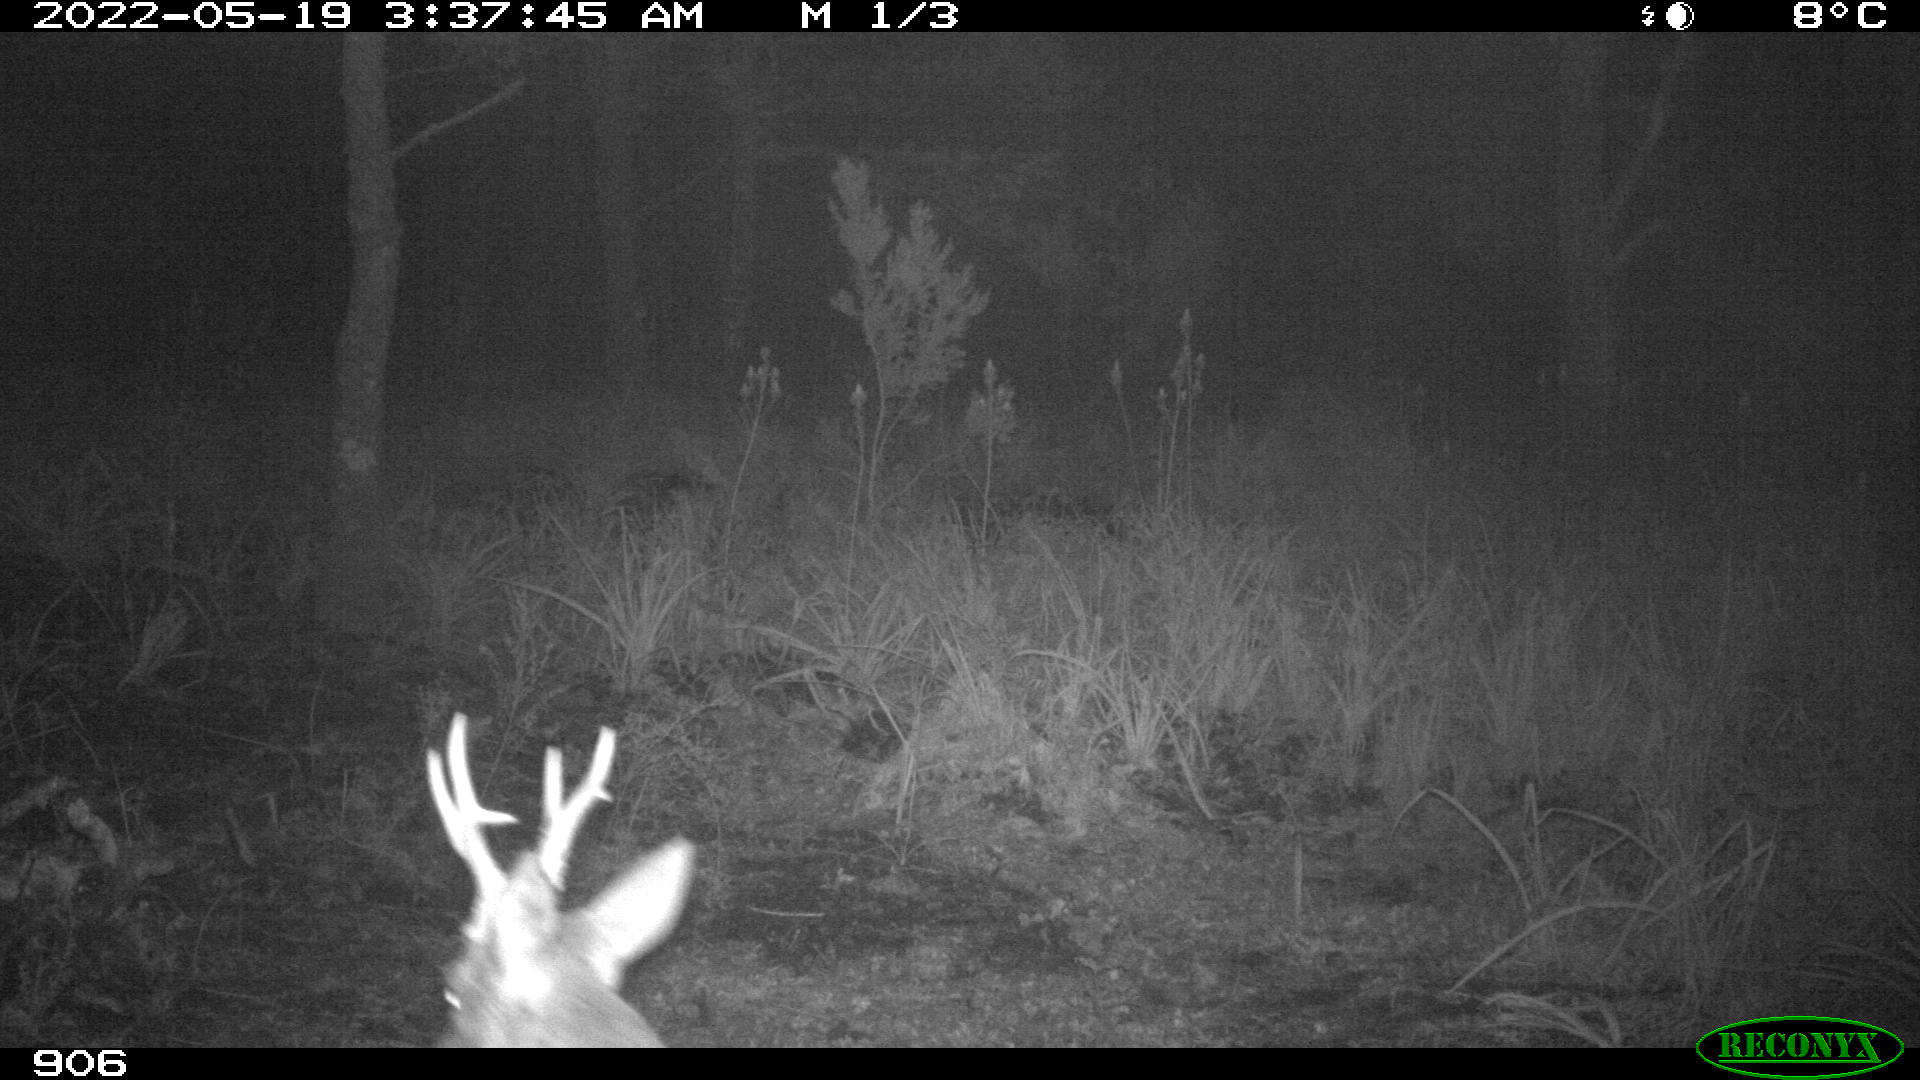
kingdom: Animalia
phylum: Chordata
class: Mammalia
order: Artiodactyla
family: Cervidae
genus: Capreolus
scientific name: Capreolus capreolus
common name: Western roe deer
